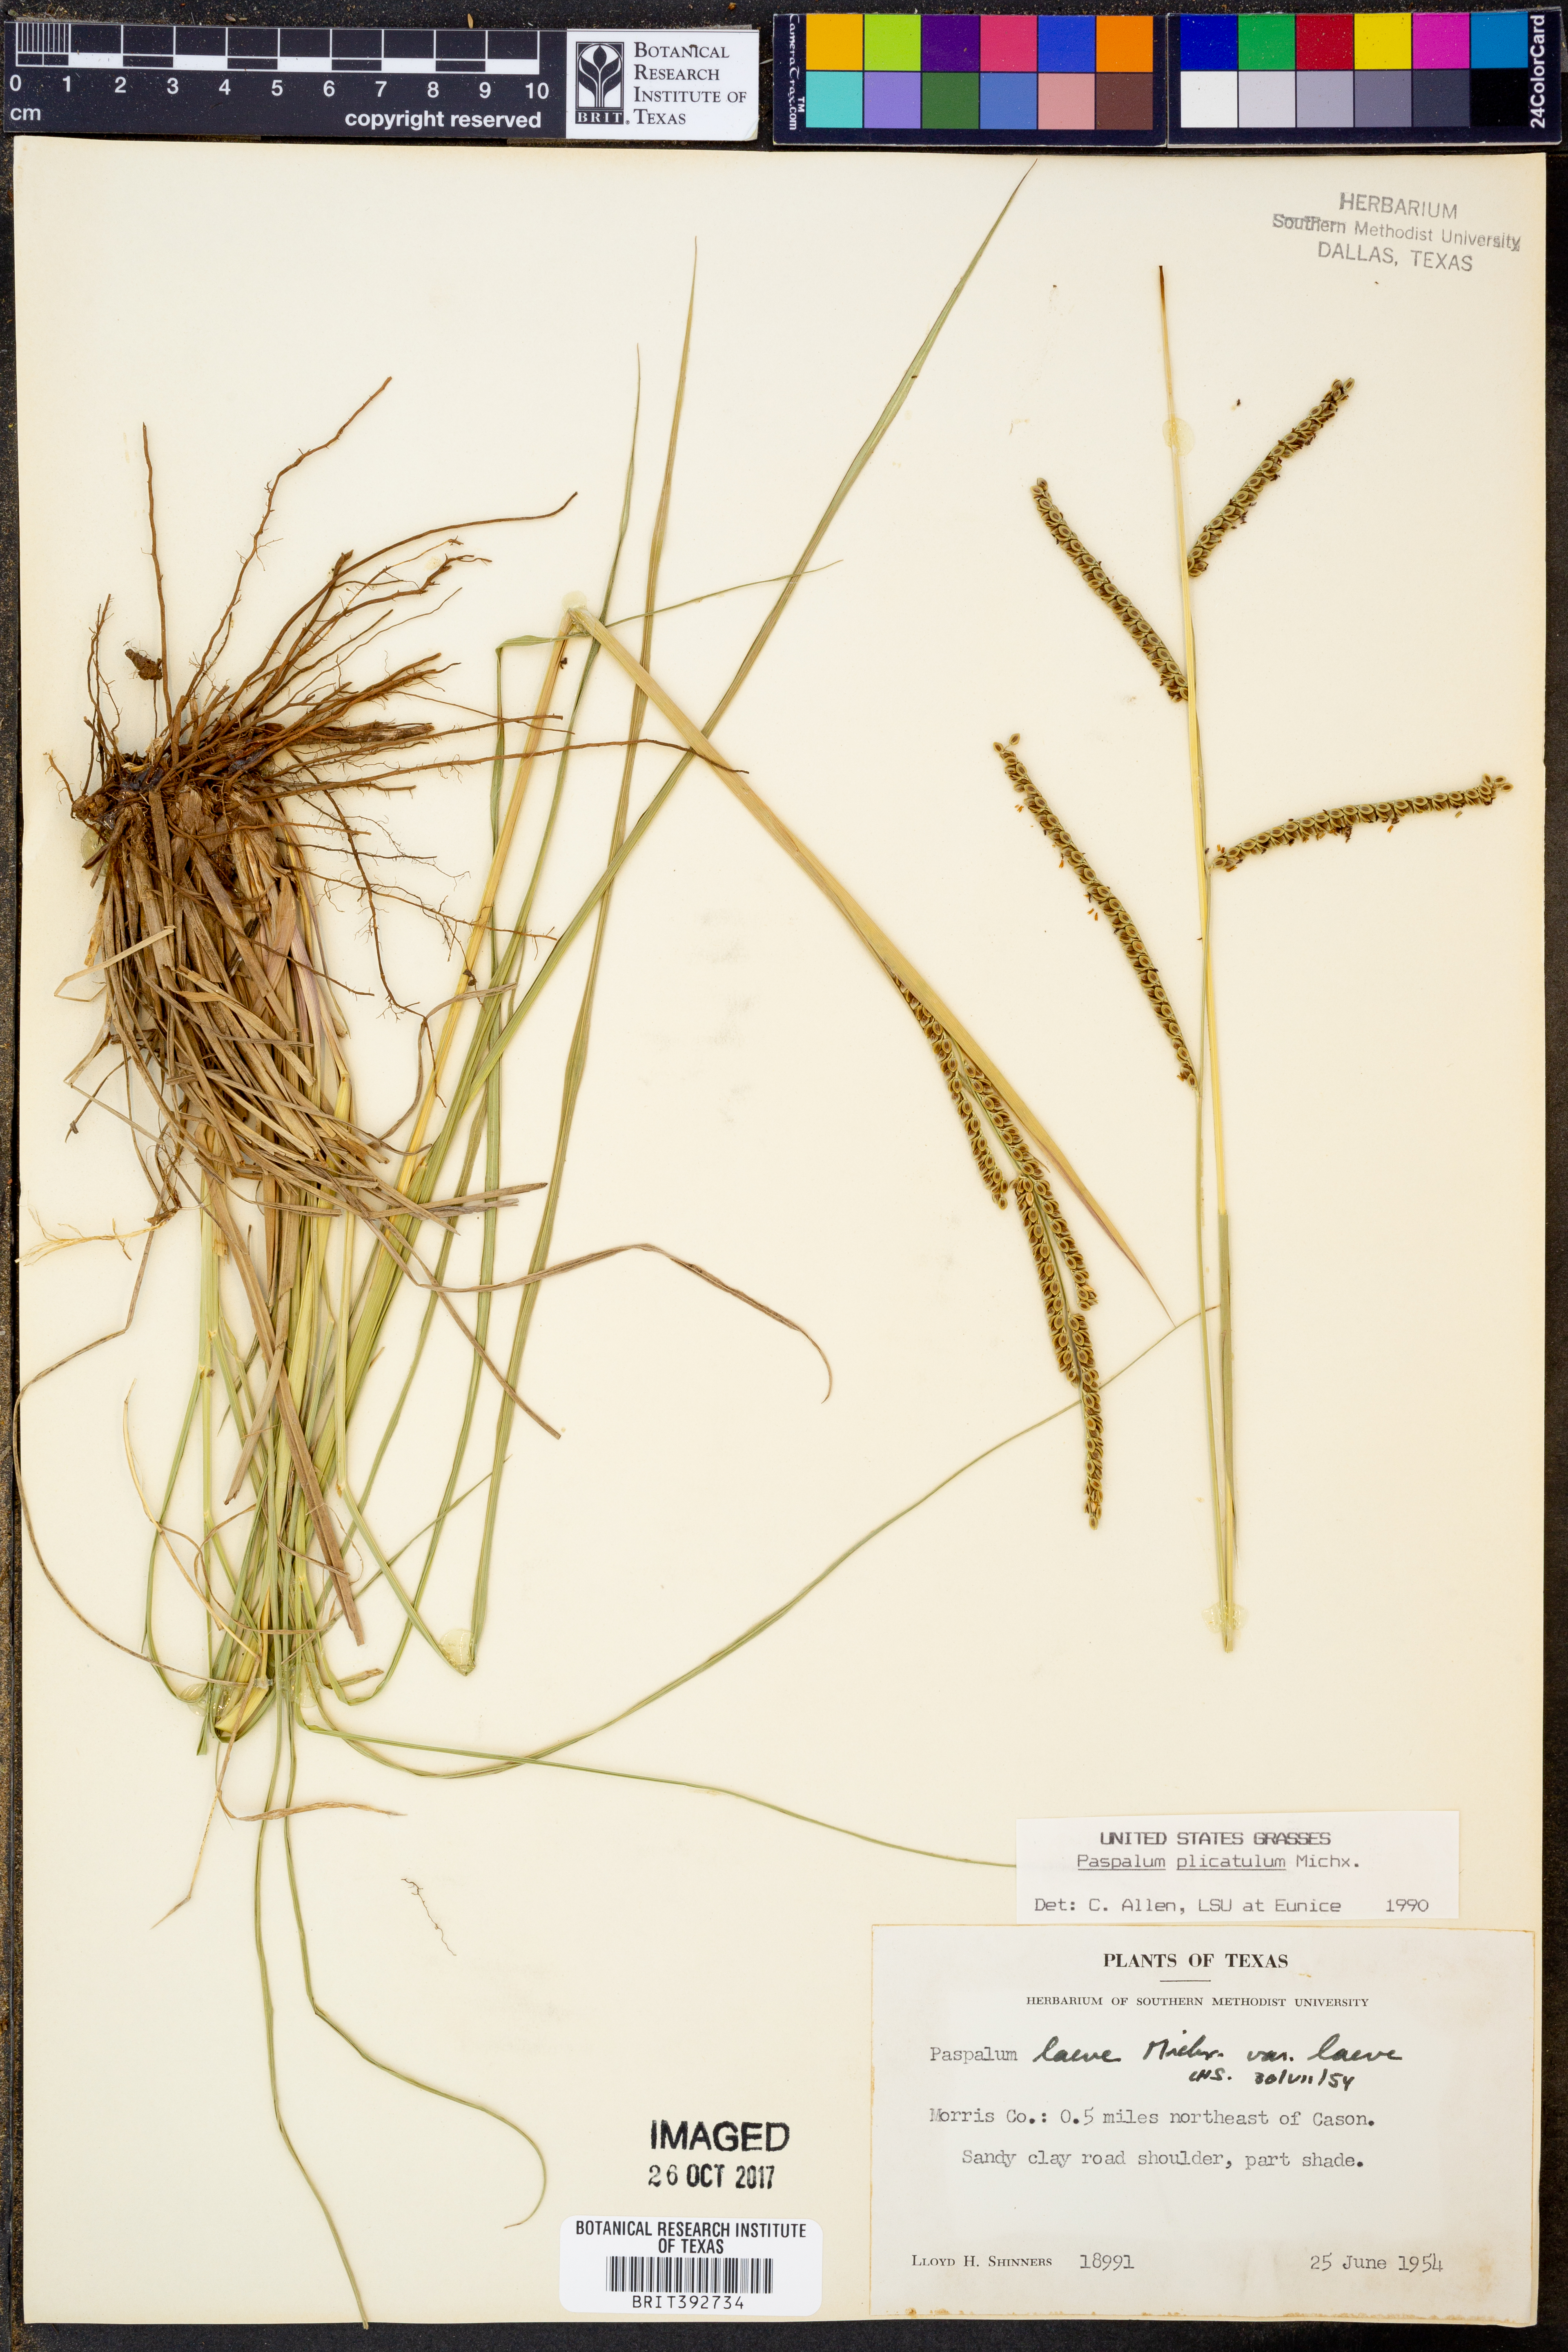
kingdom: Plantae
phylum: Tracheophyta
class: Liliopsida
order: Poales
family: Poaceae
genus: Paspalum
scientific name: Paspalum plicatulum
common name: Top paspalum
